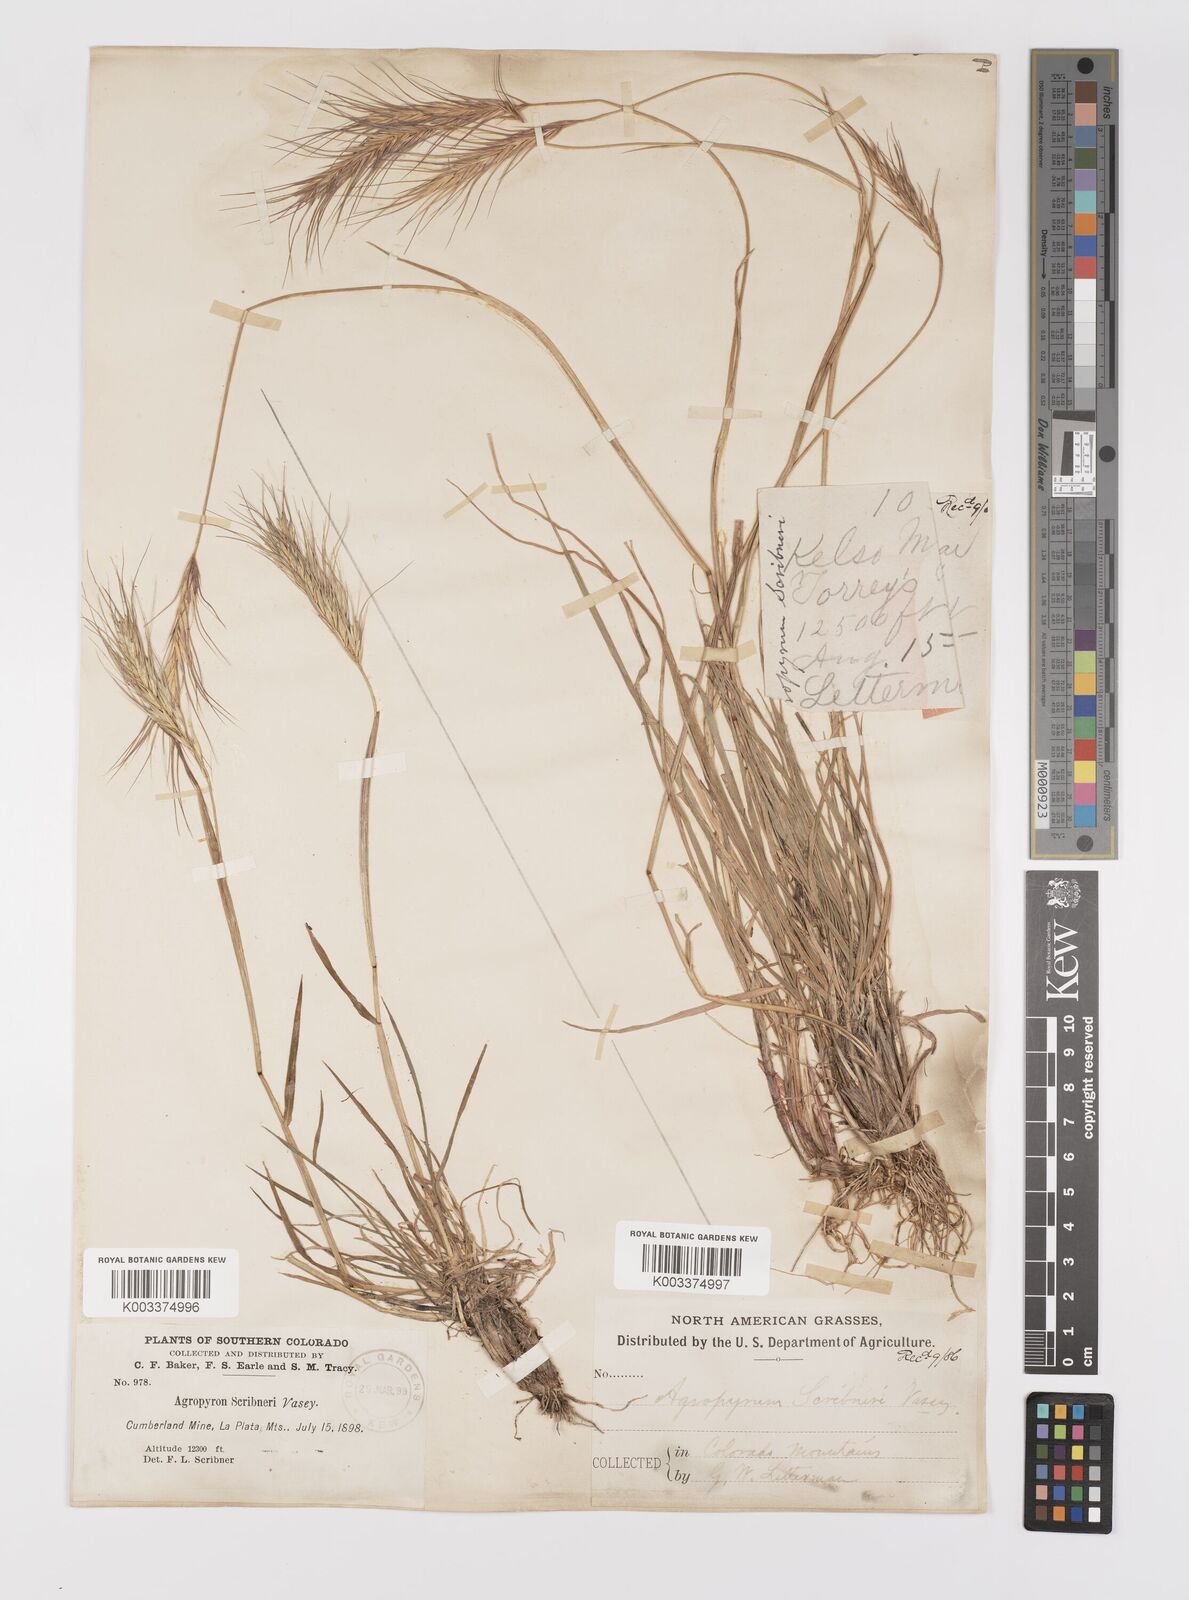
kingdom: Plantae
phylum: Tracheophyta
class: Liliopsida
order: Poales
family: Poaceae
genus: Elymus
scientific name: Elymus scribneri
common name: Scribner's wheatgrass
